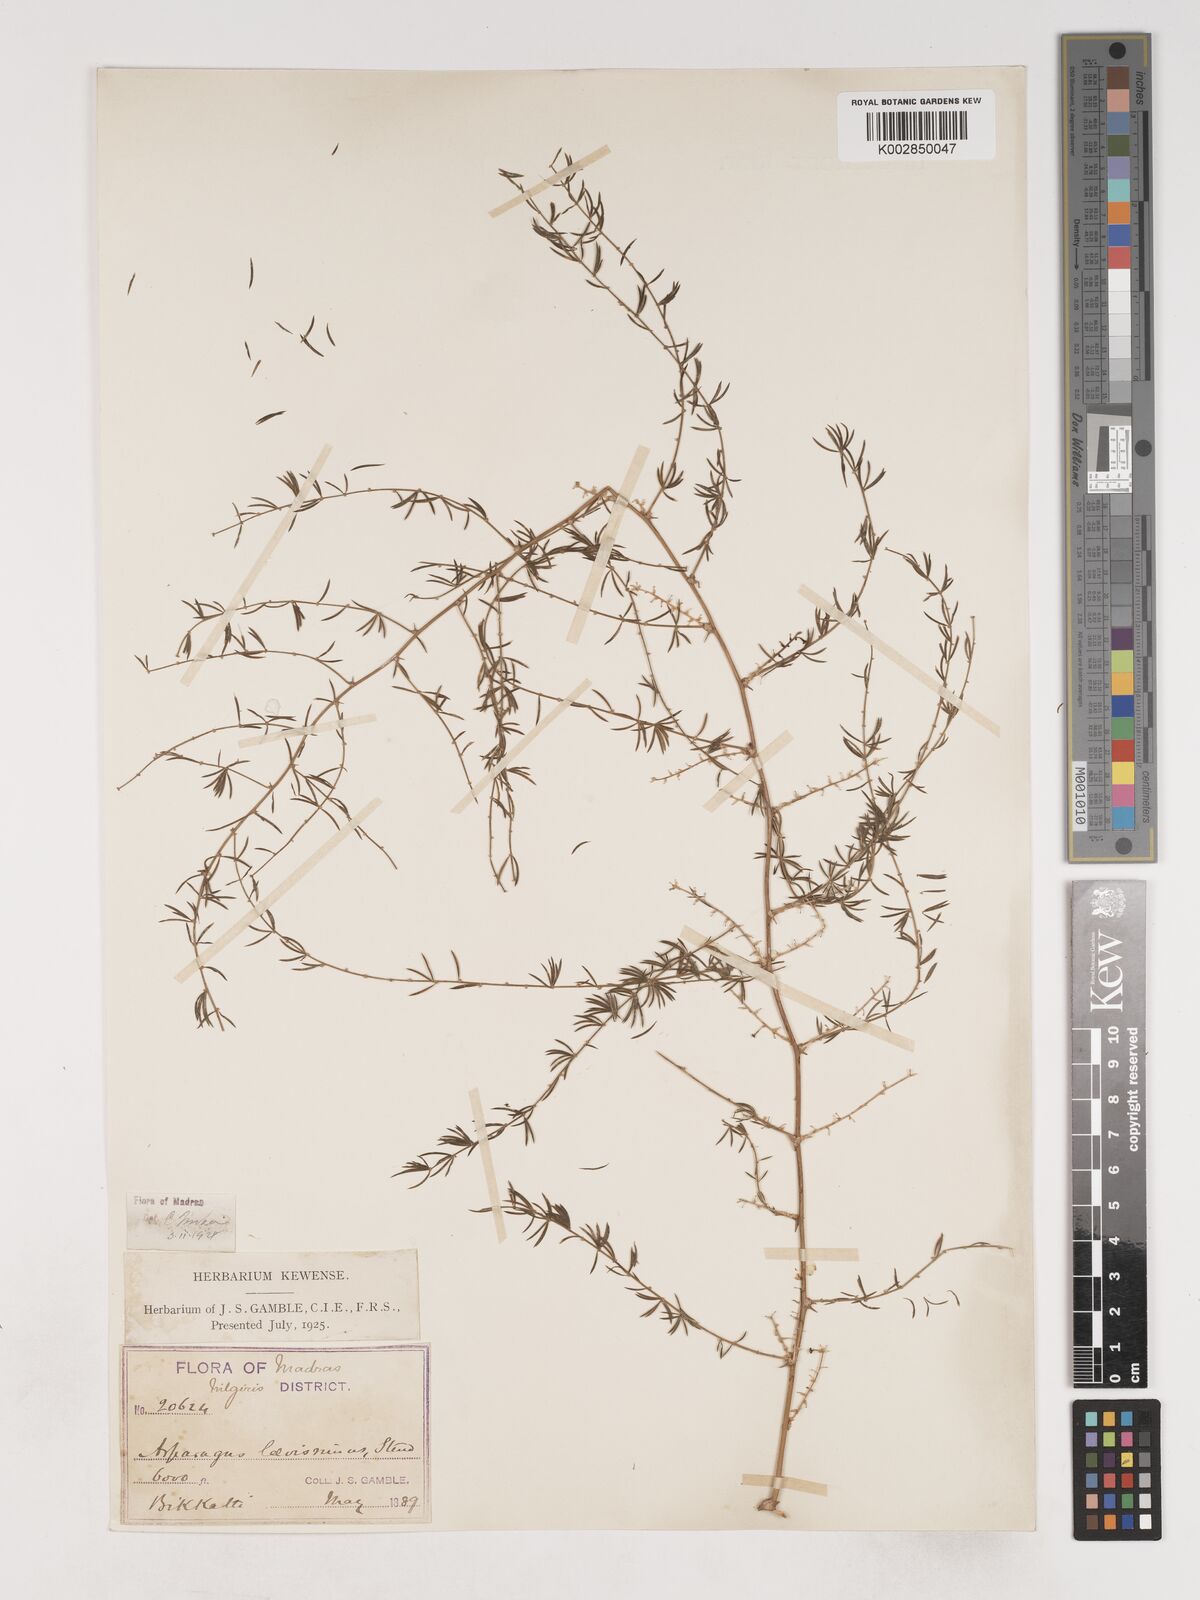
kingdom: Plantae
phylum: Tracheophyta
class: Liliopsida
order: Asparagales
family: Asparagaceae
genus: Asparagus
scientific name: Asparagus laevissimus
